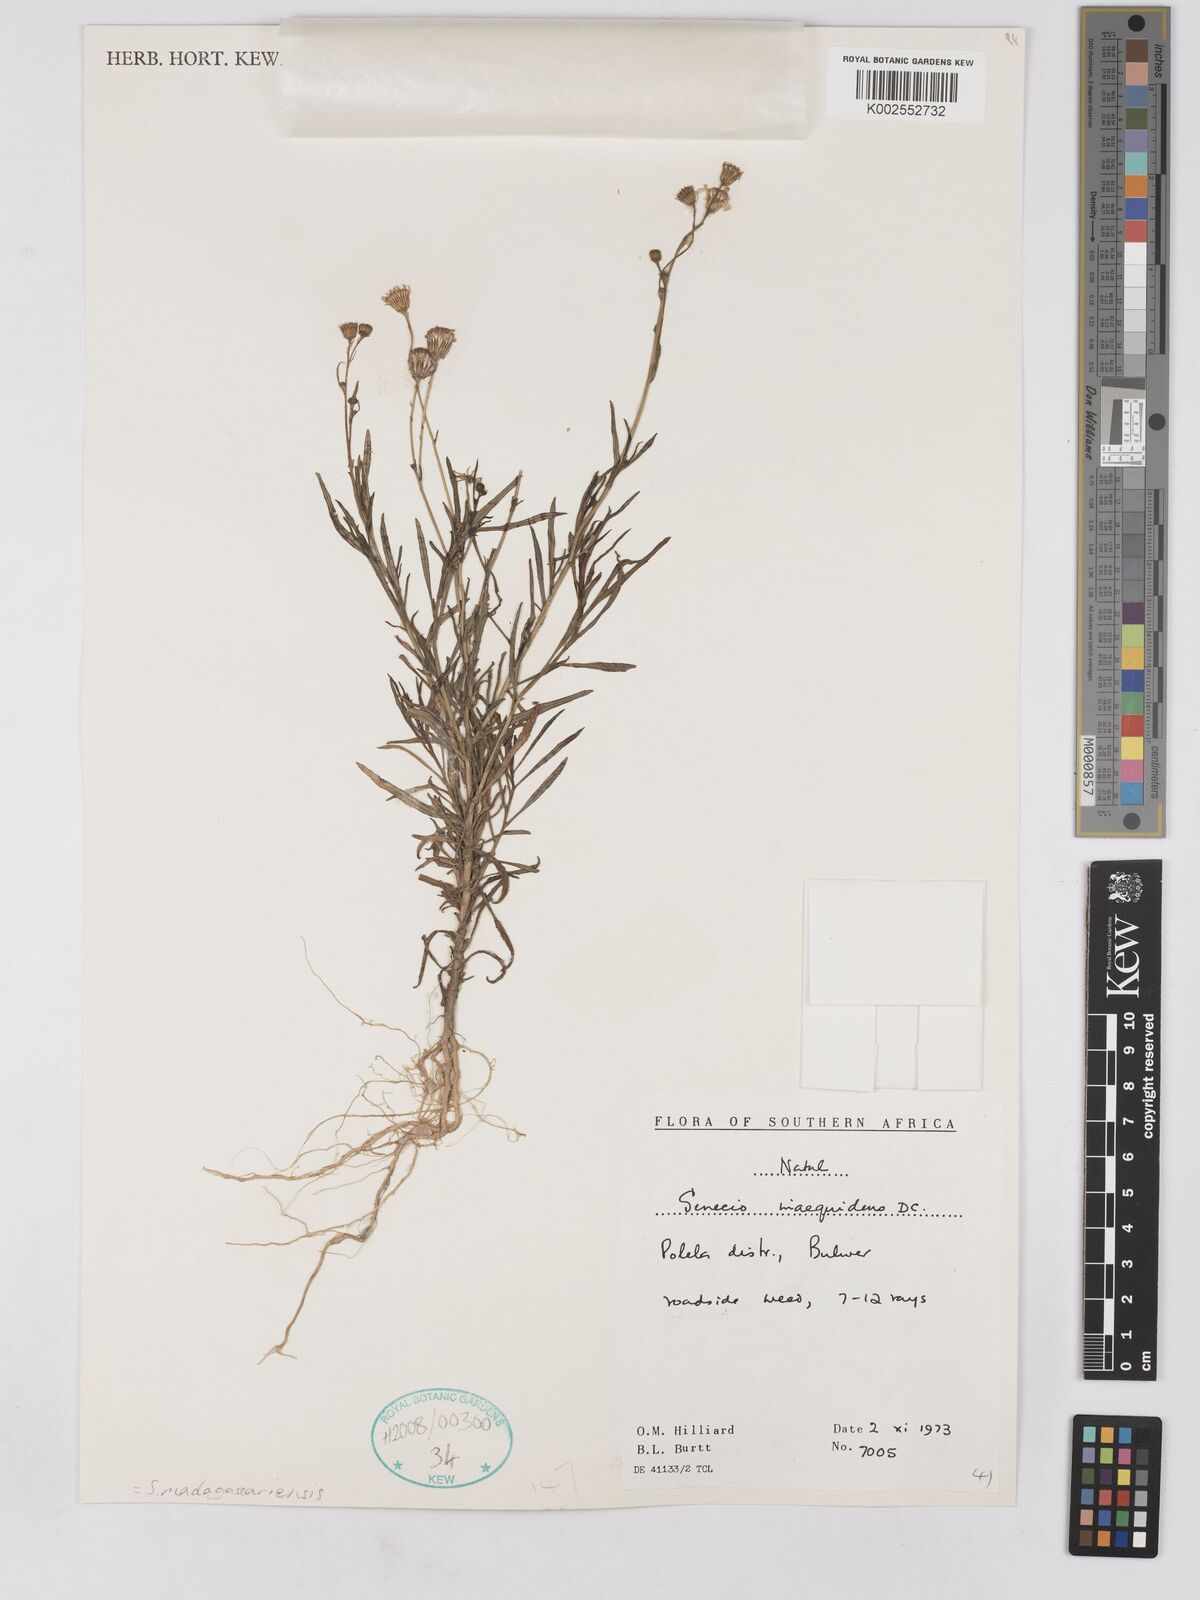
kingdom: Plantae
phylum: Tracheophyta
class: Magnoliopsida
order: Asterales
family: Asteraceae
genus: Senecio
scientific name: Senecio madagascariensis
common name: Madagascar ragwort
